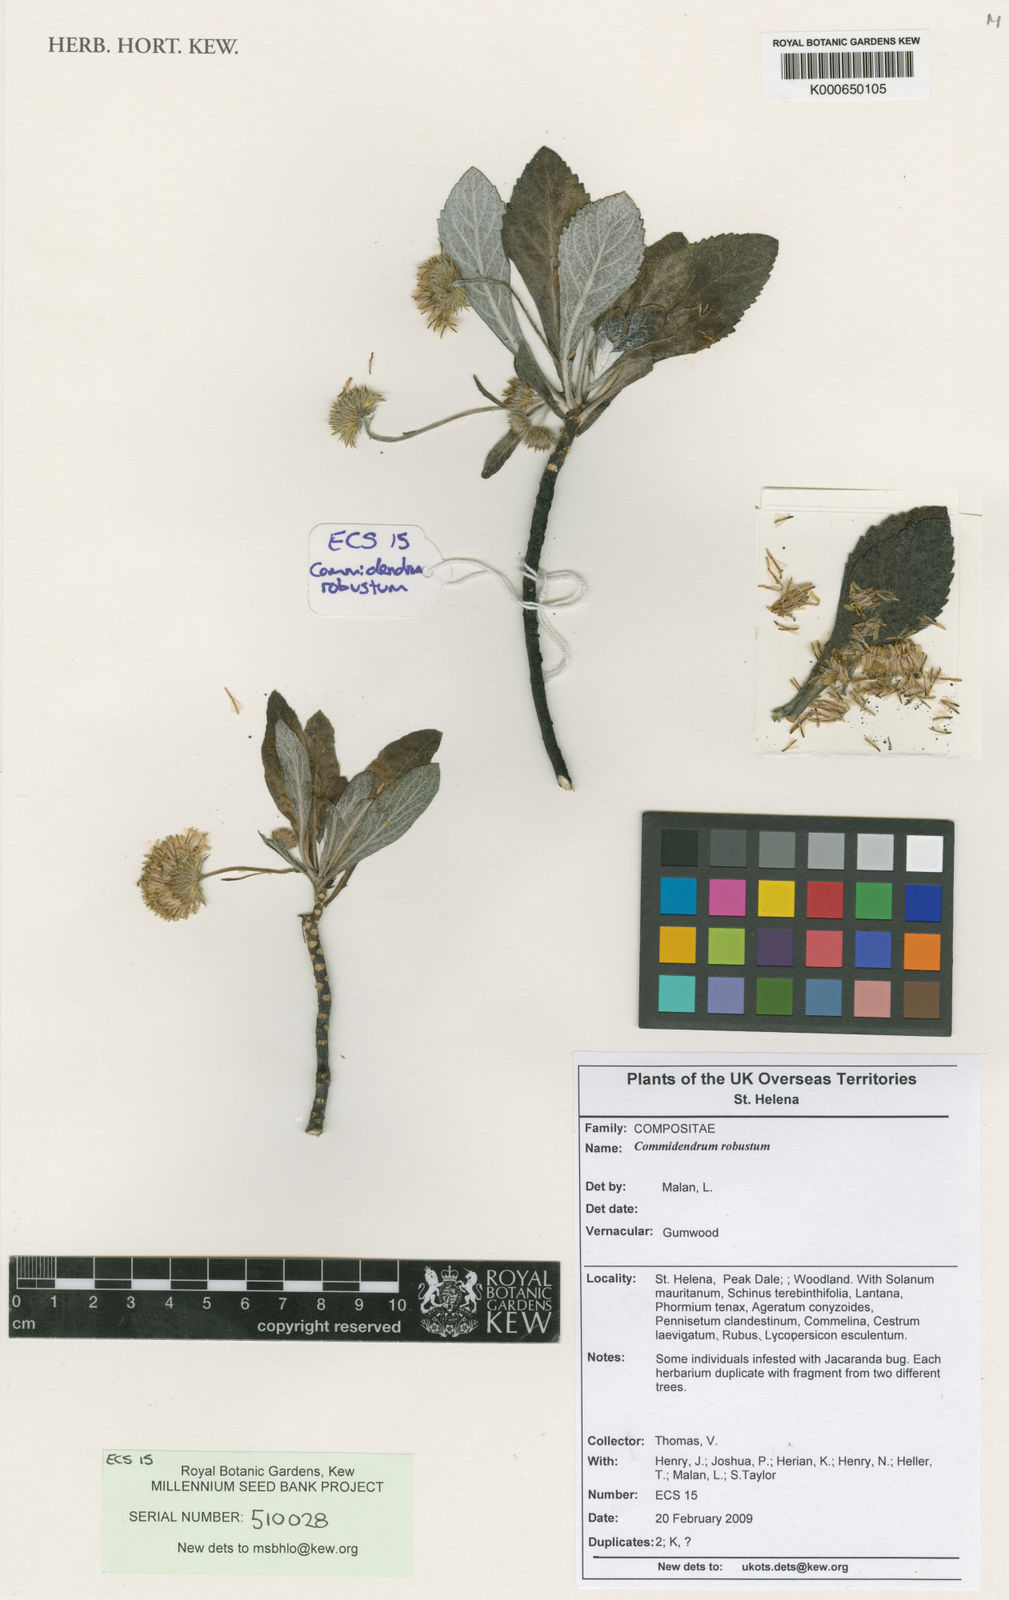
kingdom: Plantae
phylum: Tracheophyta
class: Magnoliopsida
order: Asterales
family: Asteraceae
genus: Commidendrum
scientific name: Commidendrum robustum
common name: Gumwood
